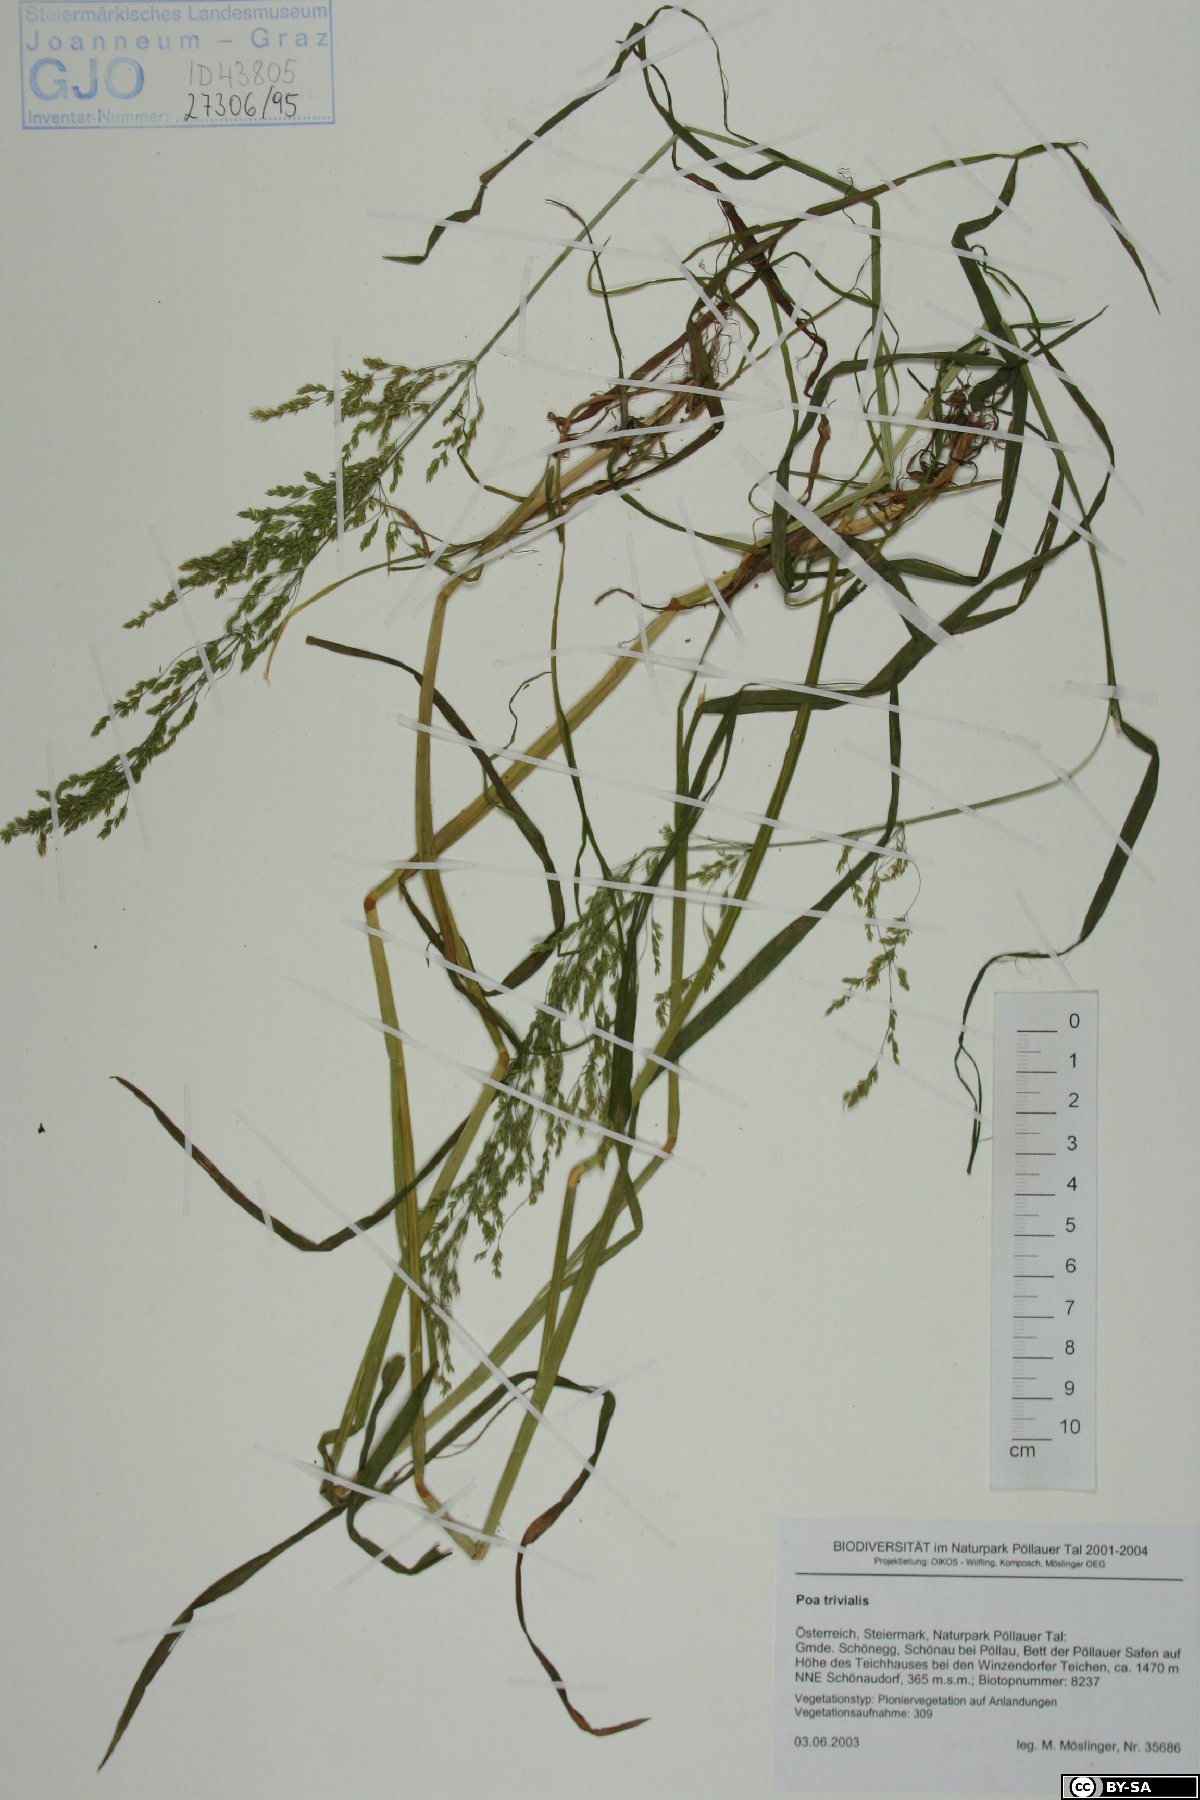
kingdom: Plantae
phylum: Tracheophyta
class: Liliopsida
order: Poales
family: Poaceae
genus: Poa
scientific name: Poa trivialis
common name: Rough bluegrass
